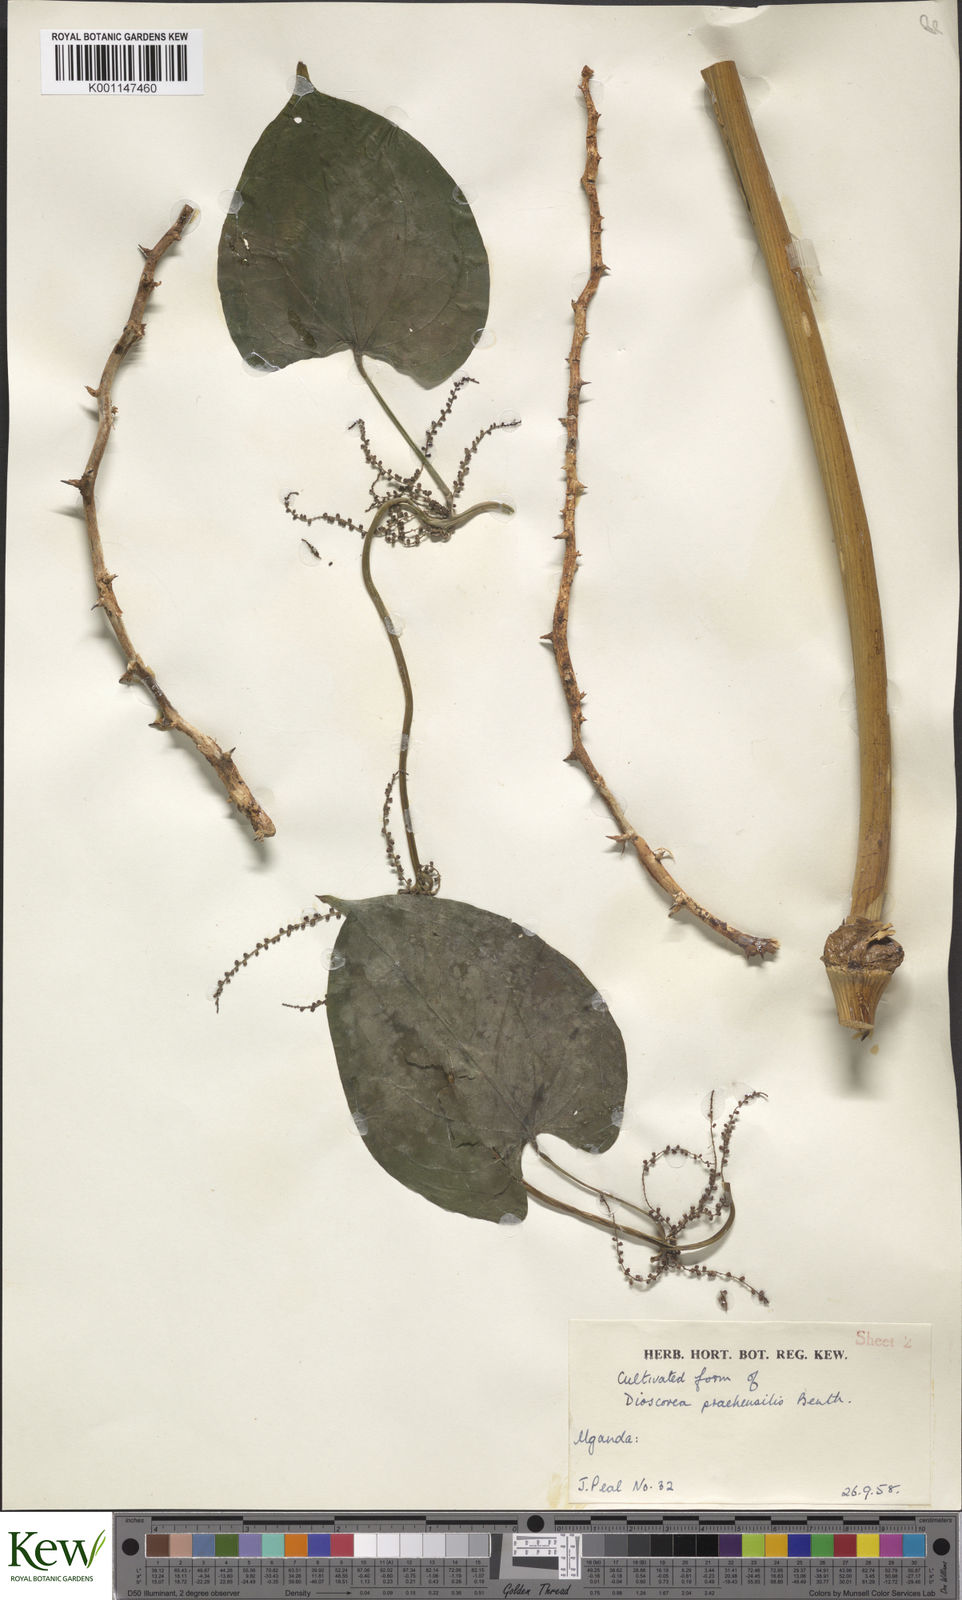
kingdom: Plantae
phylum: Tracheophyta
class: Liliopsida
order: Dioscoreales
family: Dioscoreaceae
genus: Dioscorea
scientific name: Dioscorea
